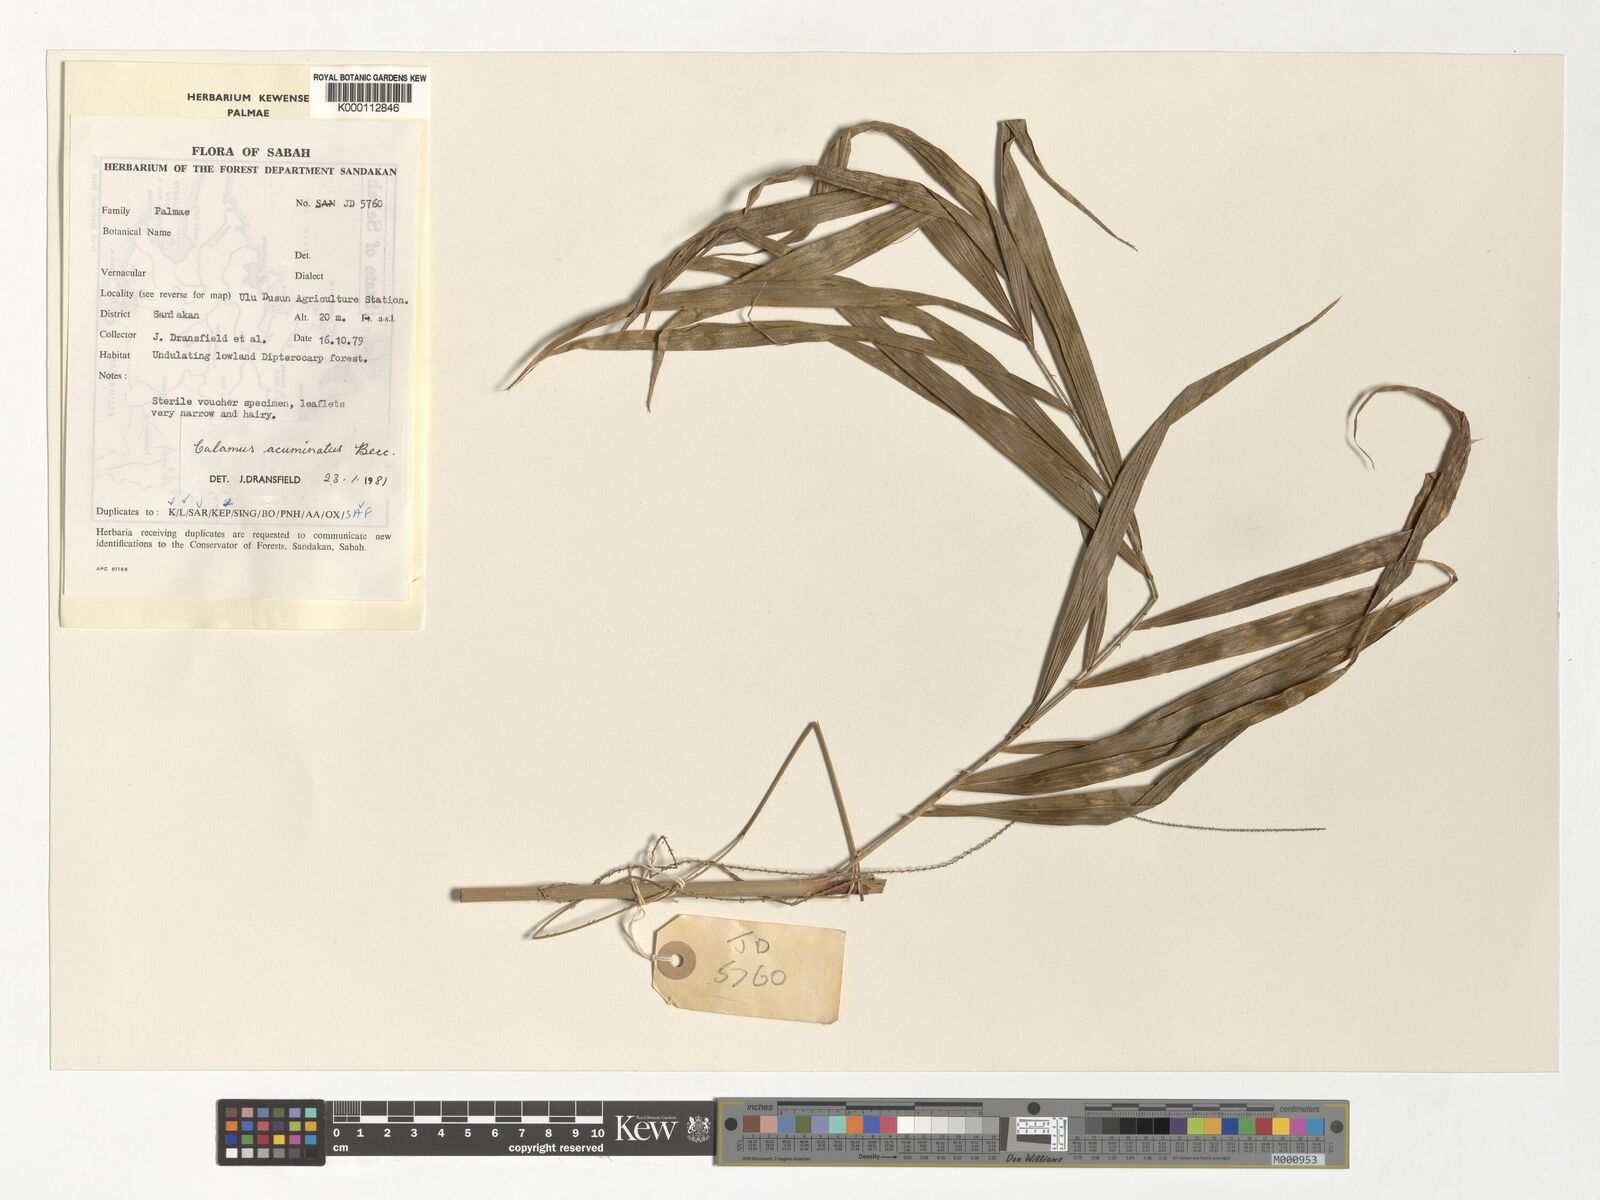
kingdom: Plantae
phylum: Tracheophyta
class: Liliopsida
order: Arecales
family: Arecaceae
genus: Calamus
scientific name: Calamus javensis
